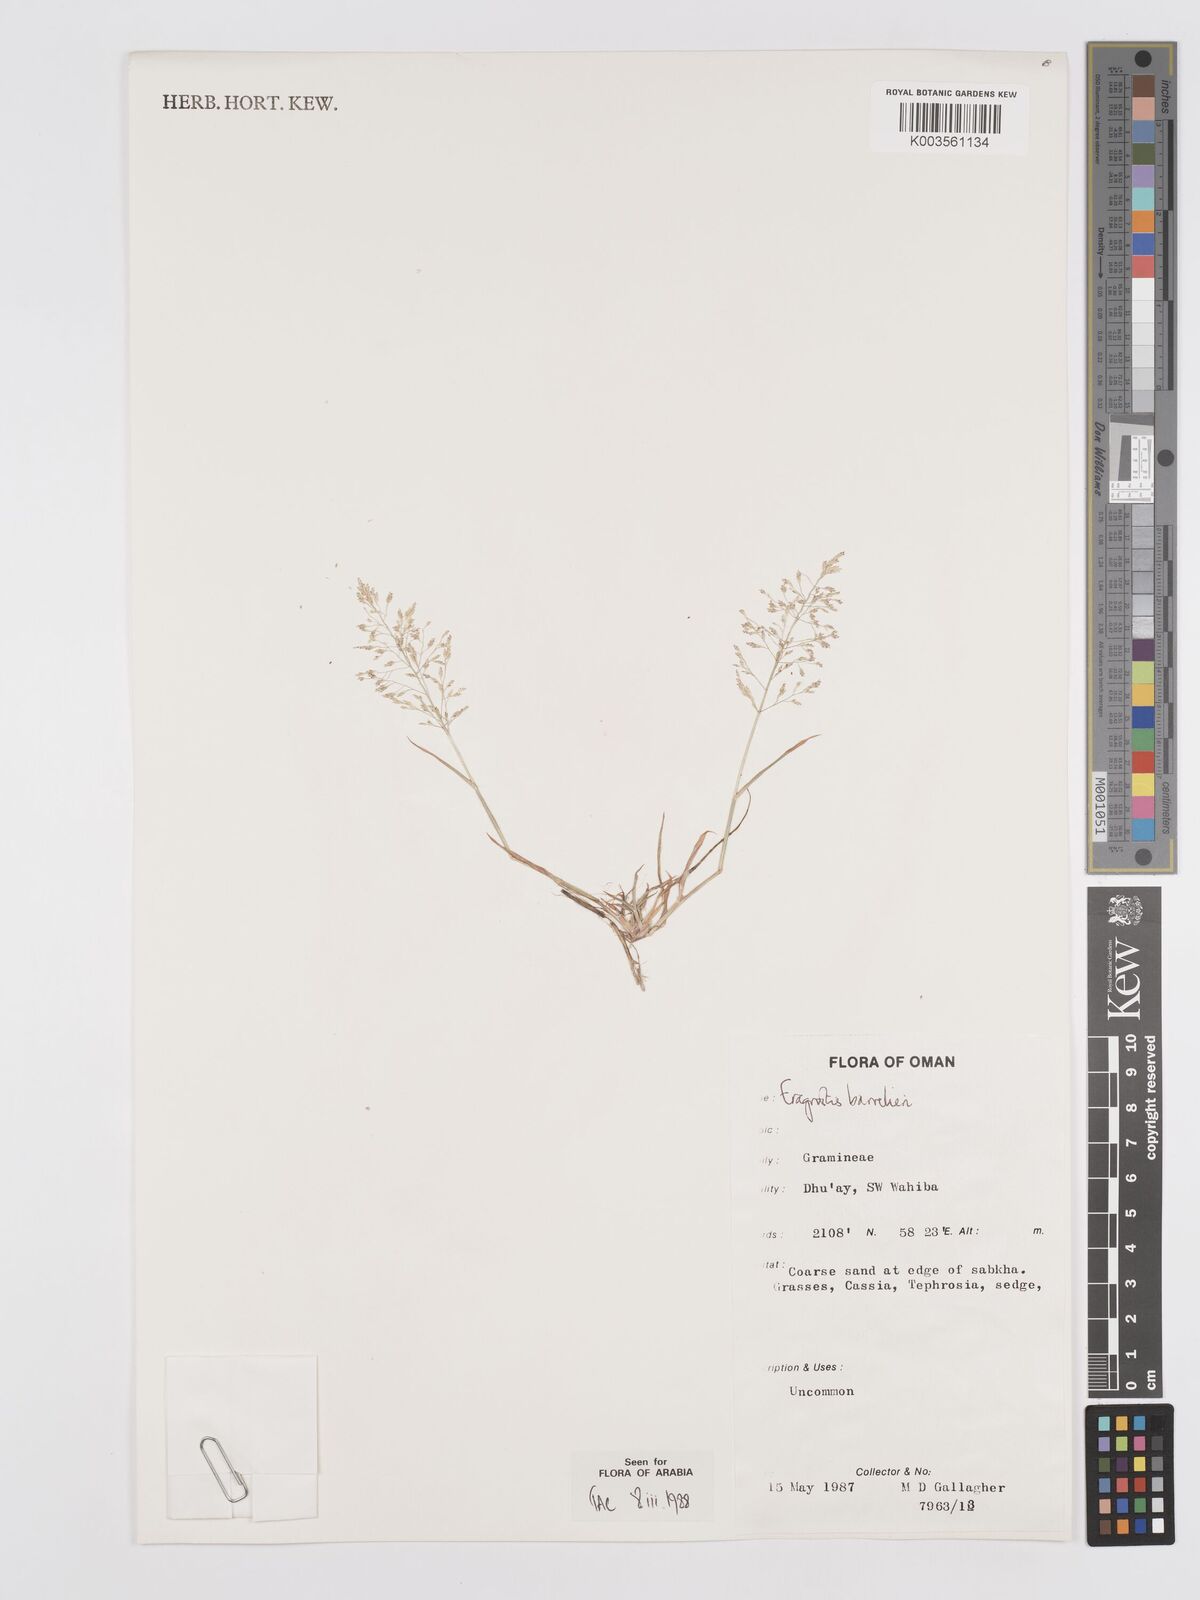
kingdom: Plantae
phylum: Tracheophyta
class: Liliopsida
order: Poales
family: Poaceae
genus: Eragrostis
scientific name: Eragrostis barrelieri
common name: Mediterranean lovegrass
